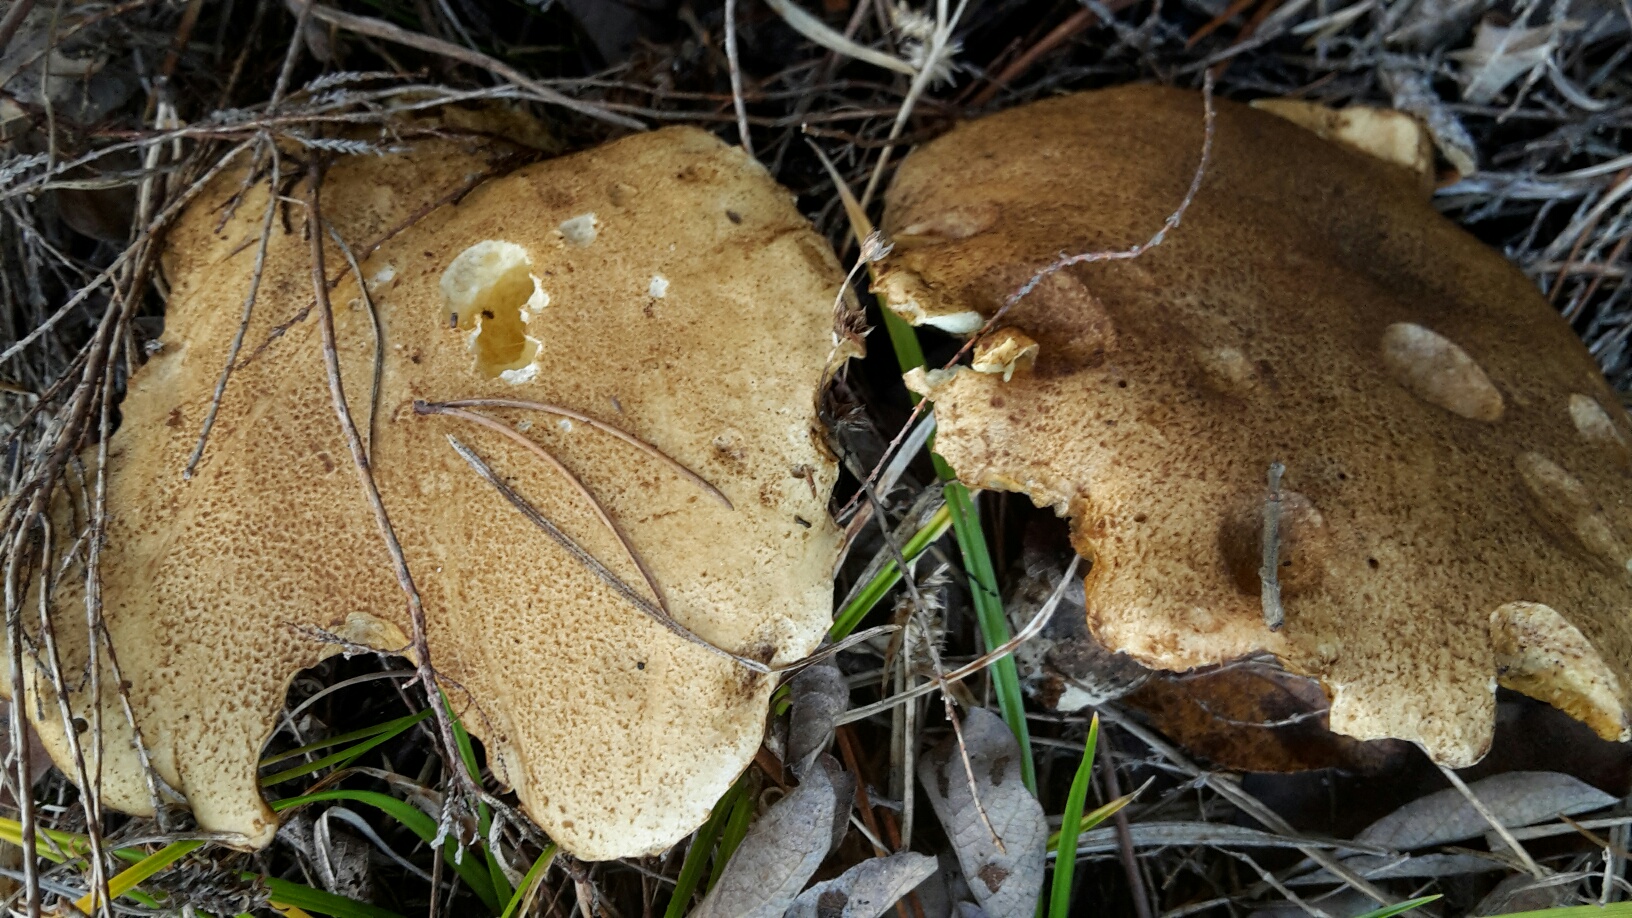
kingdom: Fungi
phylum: Basidiomycota
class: Agaricomycetes
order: Boletales
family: Suillaceae
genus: Suillus
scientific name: Suillus variegatus
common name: broget slimrørhat
